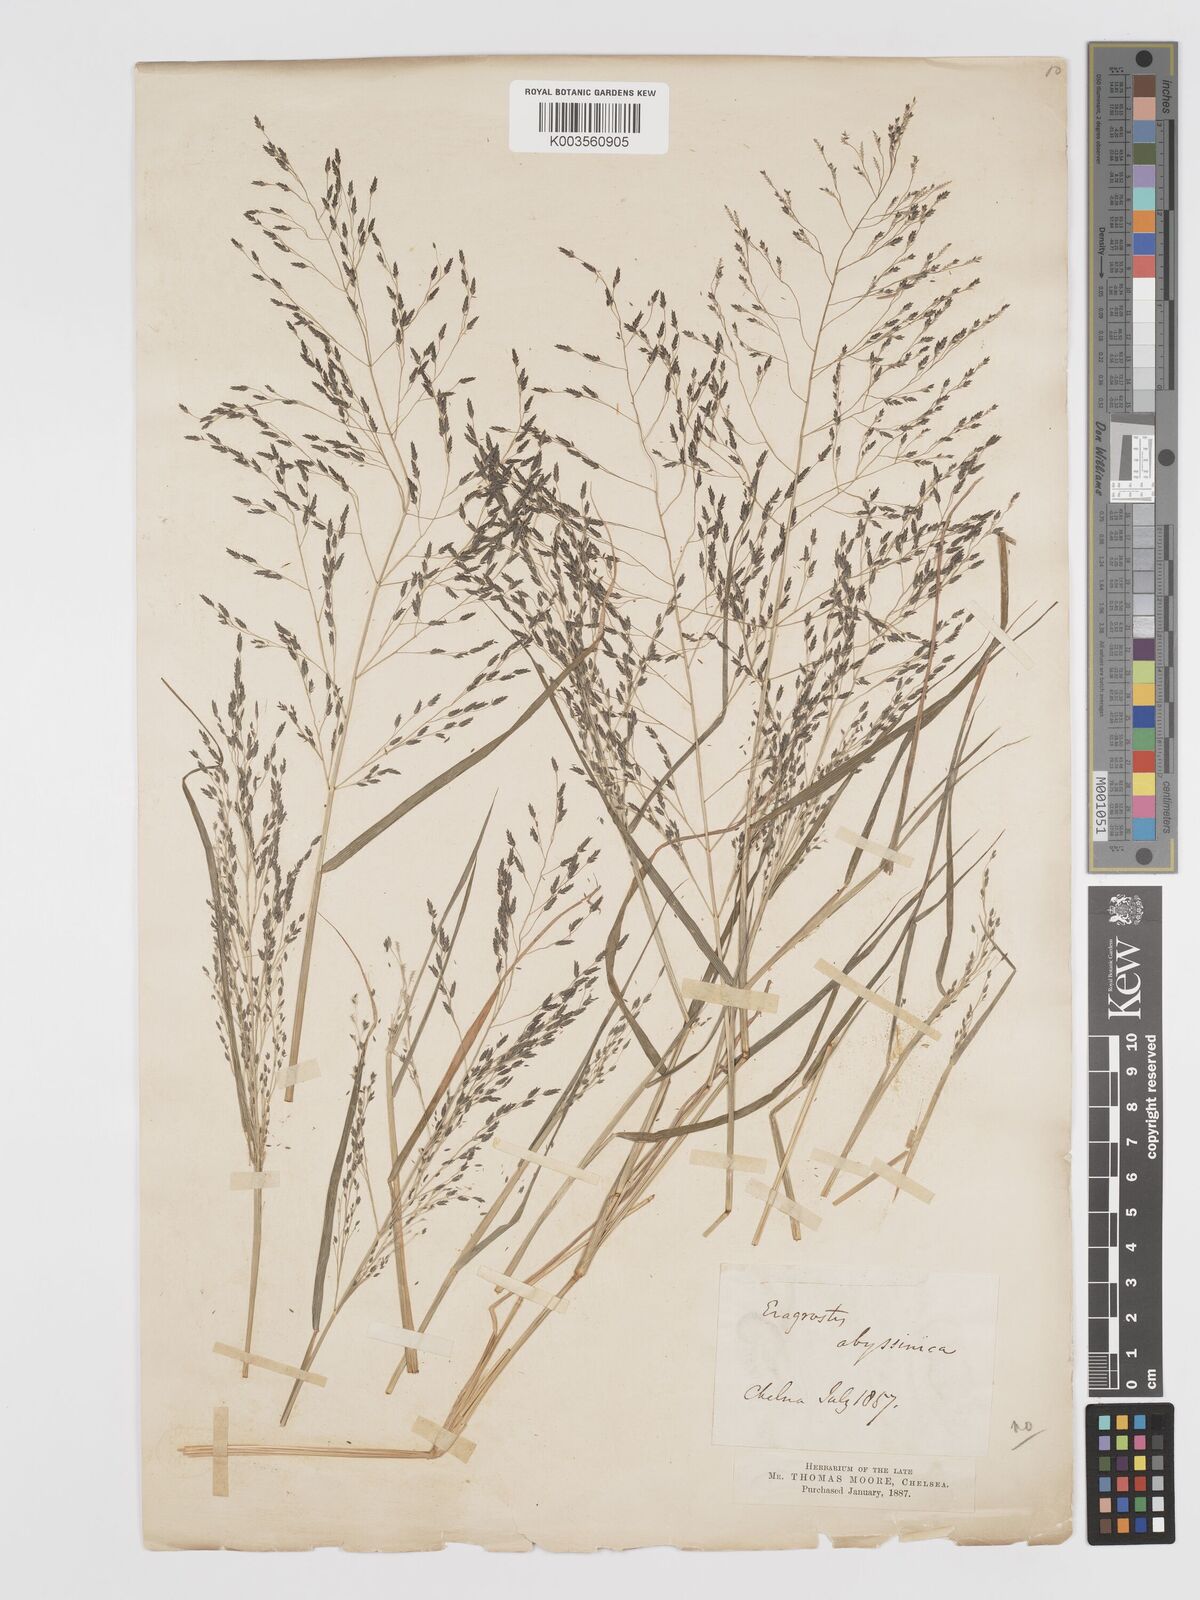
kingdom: Plantae
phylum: Tracheophyta
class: Liliopsida
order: Poales
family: Poaceae
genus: Eragrostis
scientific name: Eragrostis mexicana
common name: Mexican love grass
